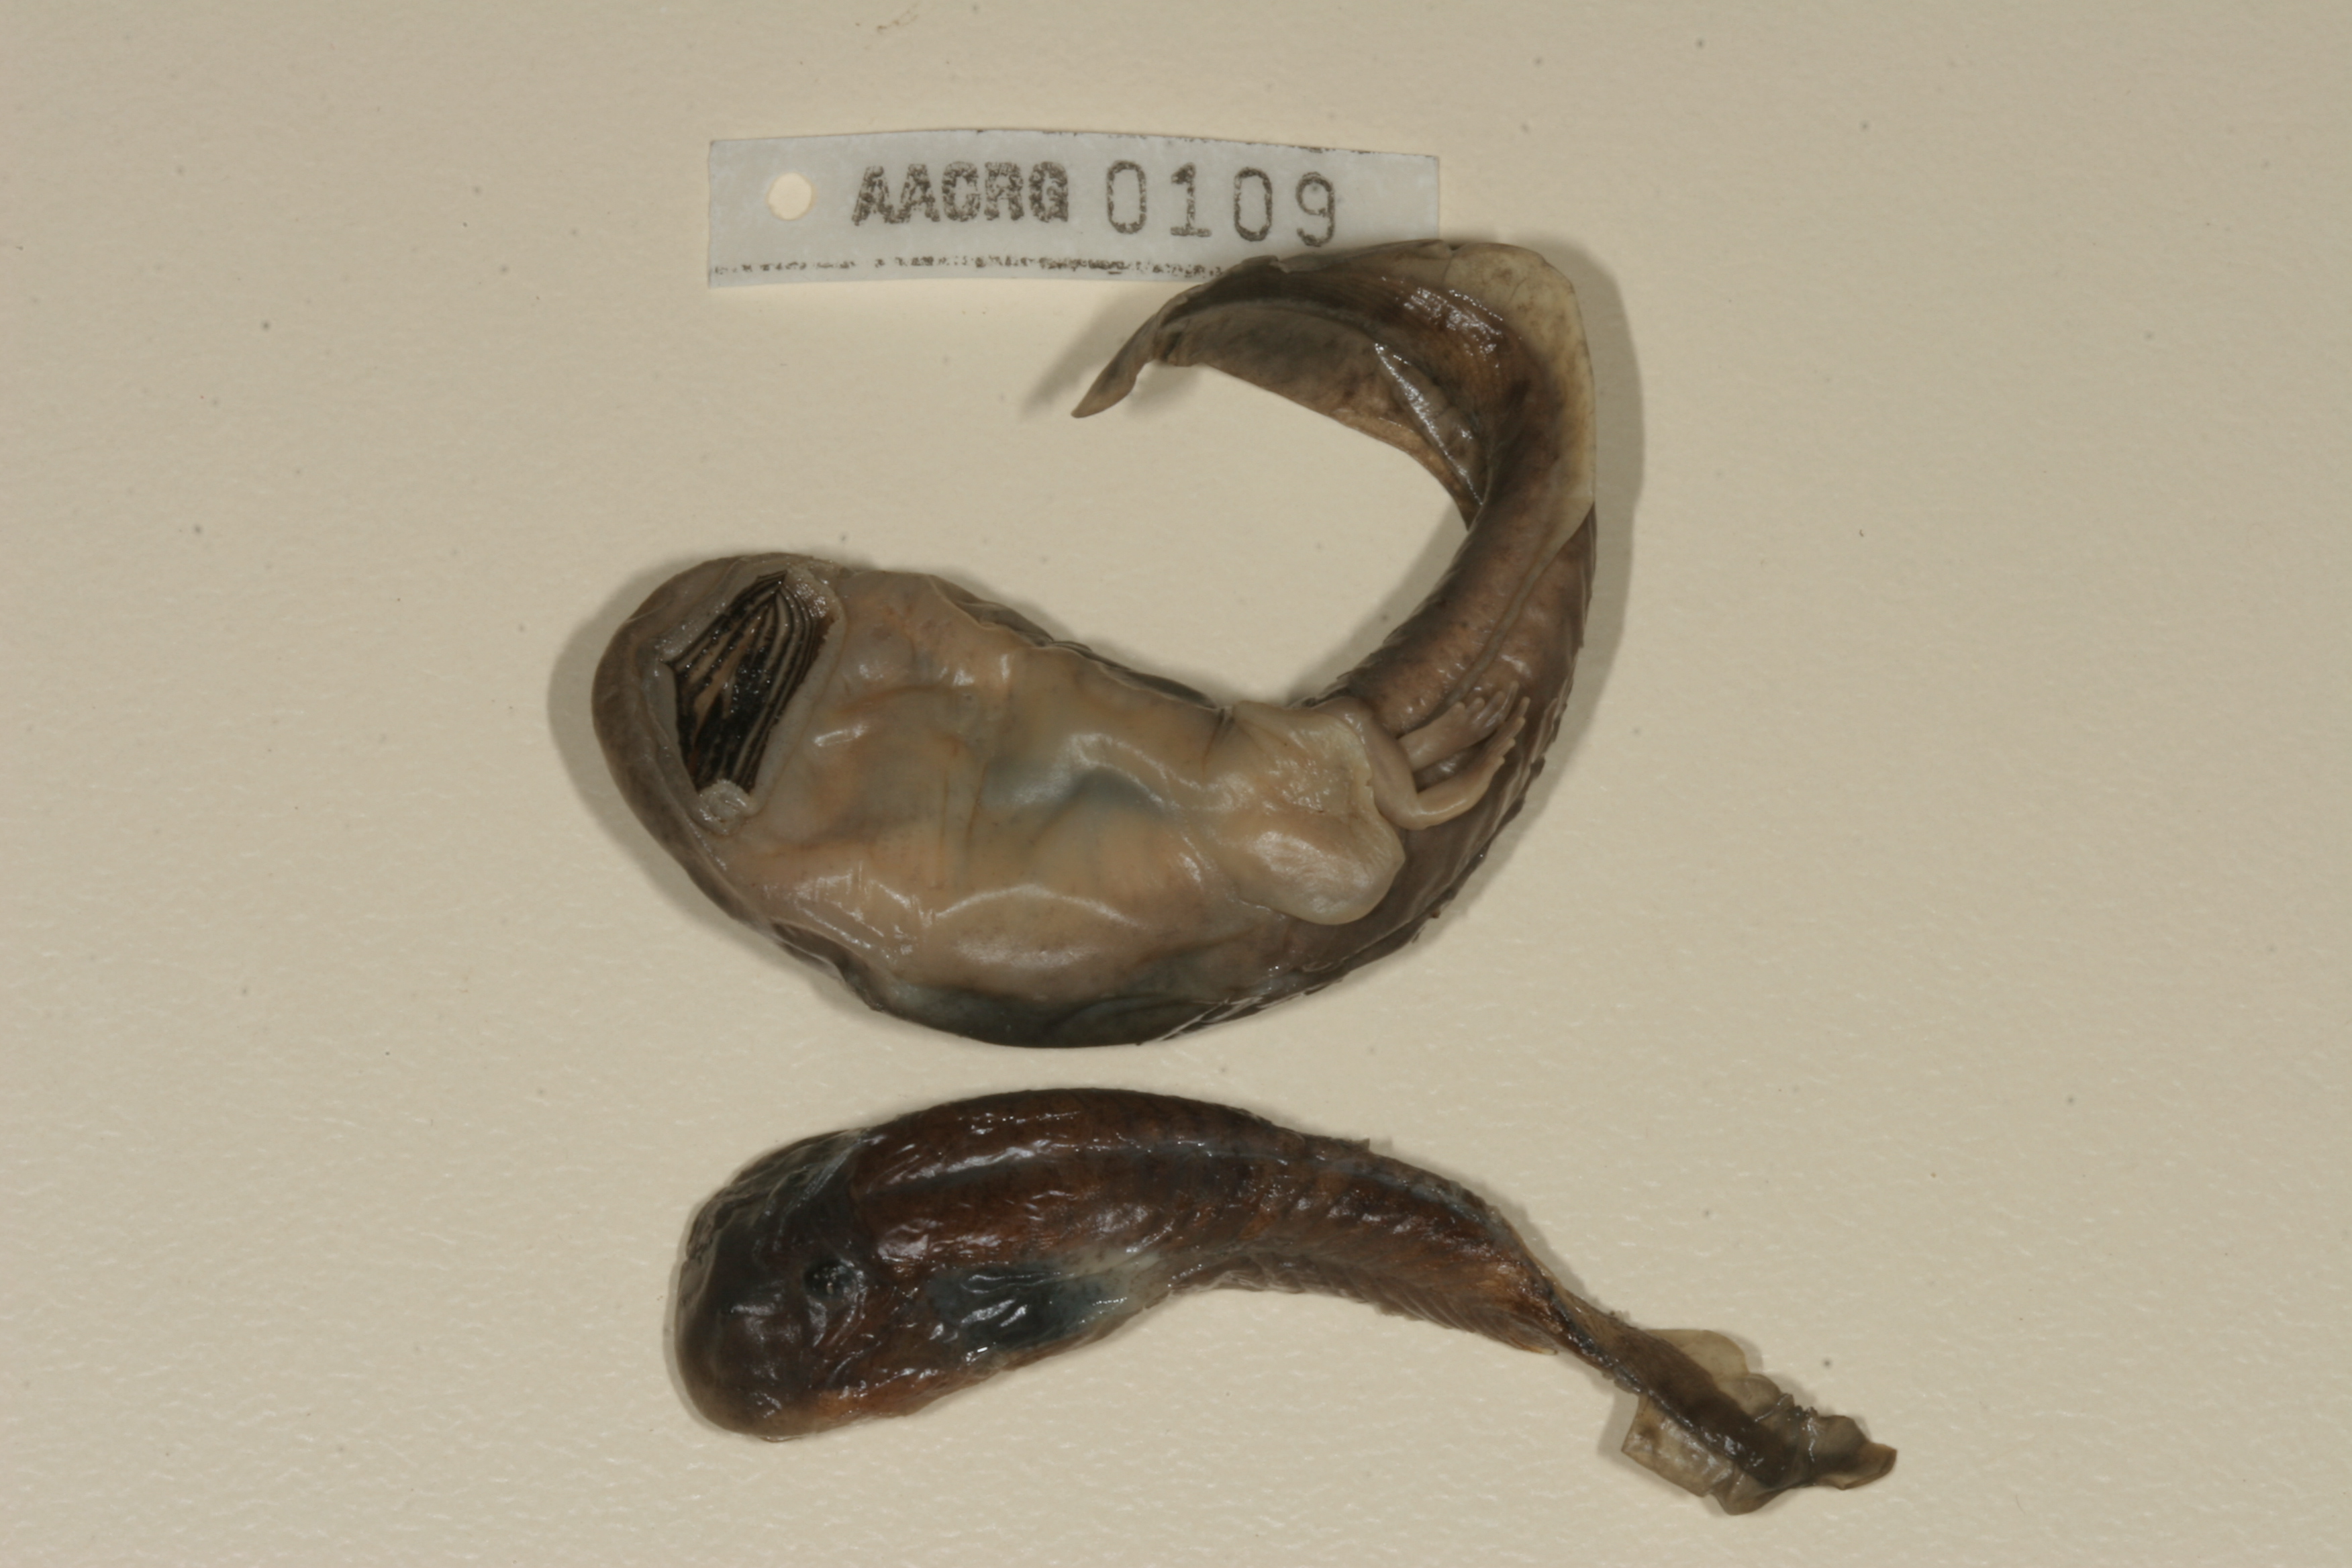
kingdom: Animalia
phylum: Chordata
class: Amphibia
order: Anura
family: Heleophrynidae
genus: Hadromophryne
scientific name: Hadromophryne natalensis
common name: Natal ghost frog
